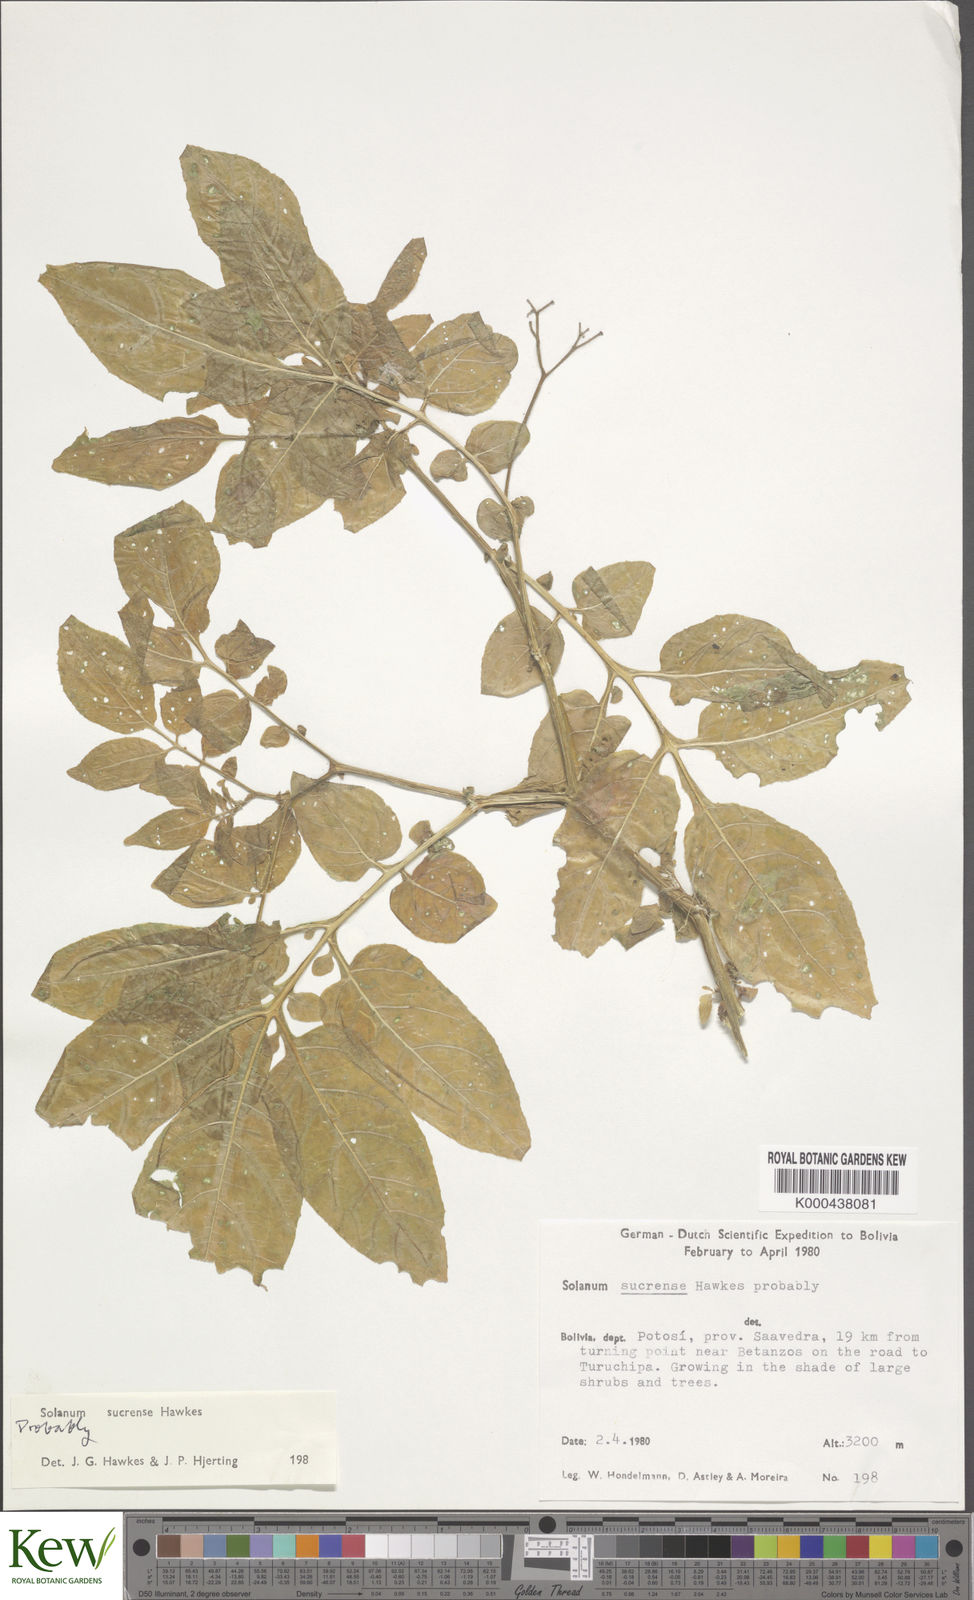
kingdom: Plantae
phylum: Tracheophyta
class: Magnoliopsida
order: Solanales
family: Solanaceae
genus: Solanum
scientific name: Solanum brevicaule
